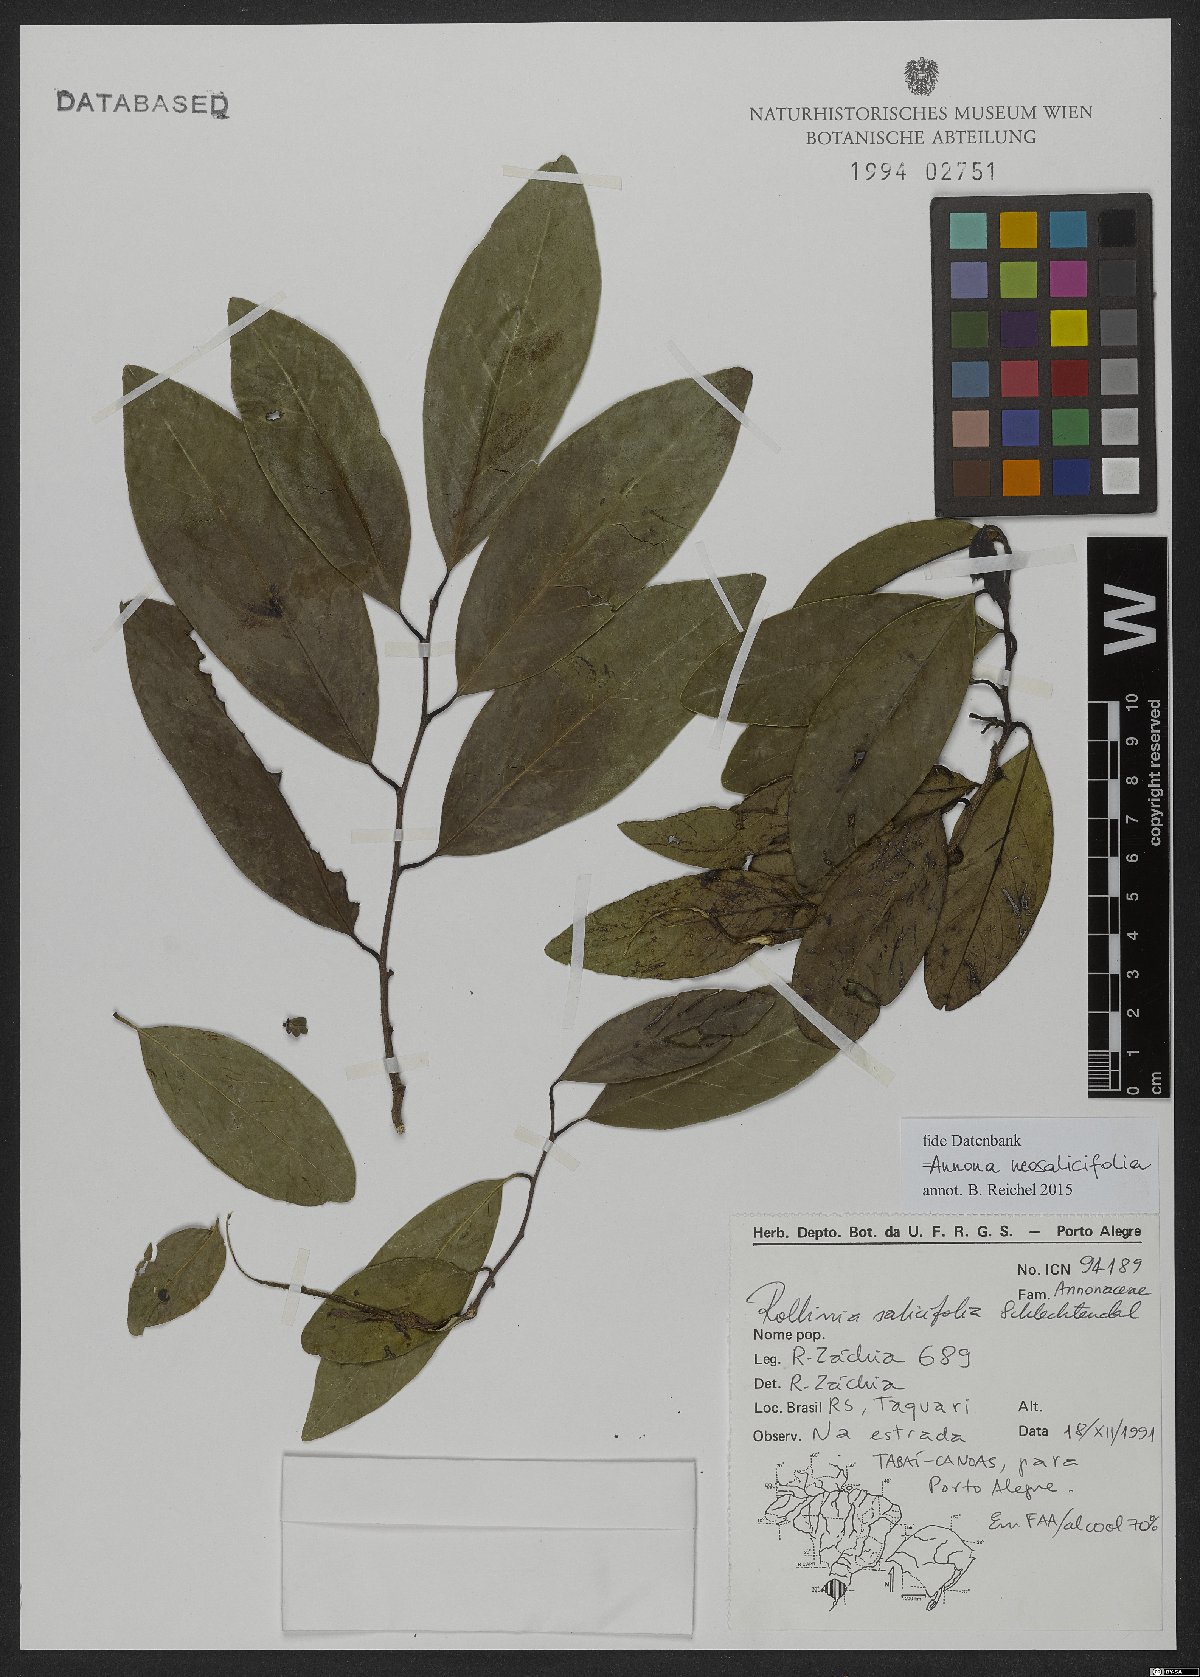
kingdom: Plantae
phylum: Tracheophyta
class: Magnoliopsida
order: Magnoliales
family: Annonaceae
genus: Annona
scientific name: Annona neosalicifolia
